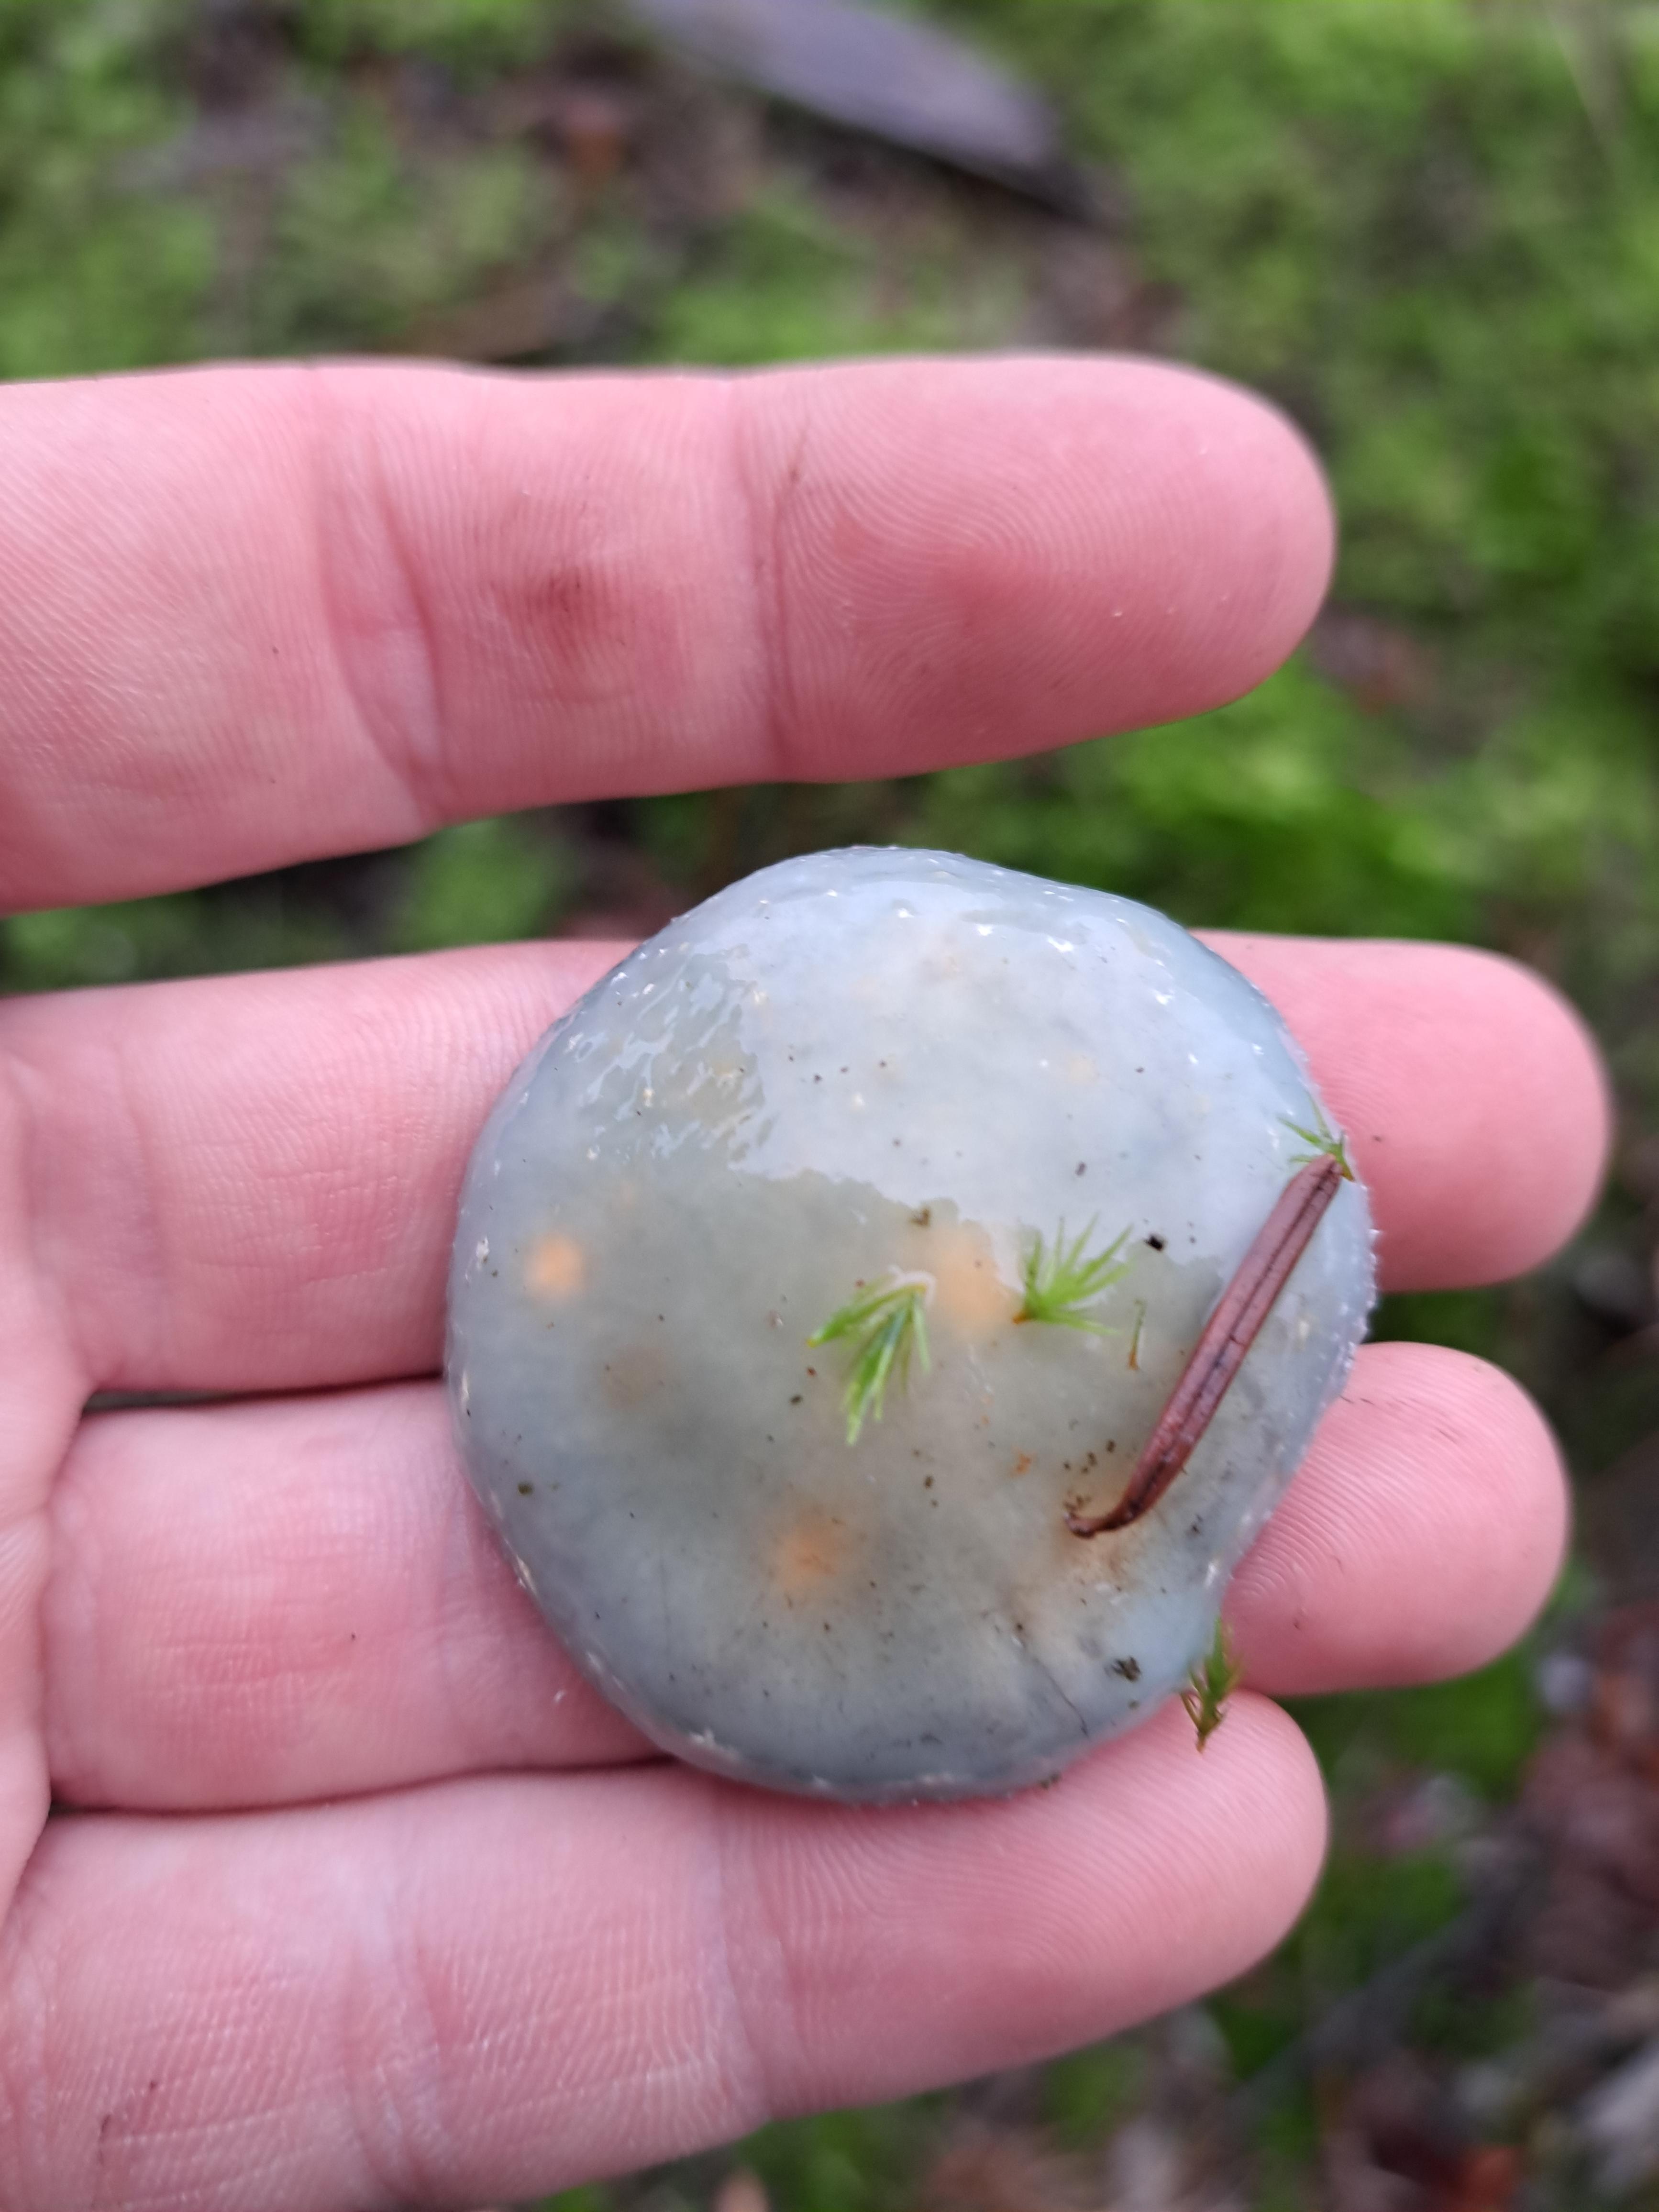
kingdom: Fungi
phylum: Basidiomycota
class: Agaricomycetes
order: Agaricales
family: Strophariaceae
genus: Stropharia
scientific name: Stropharia cyanea
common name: blågrøn bredblad
